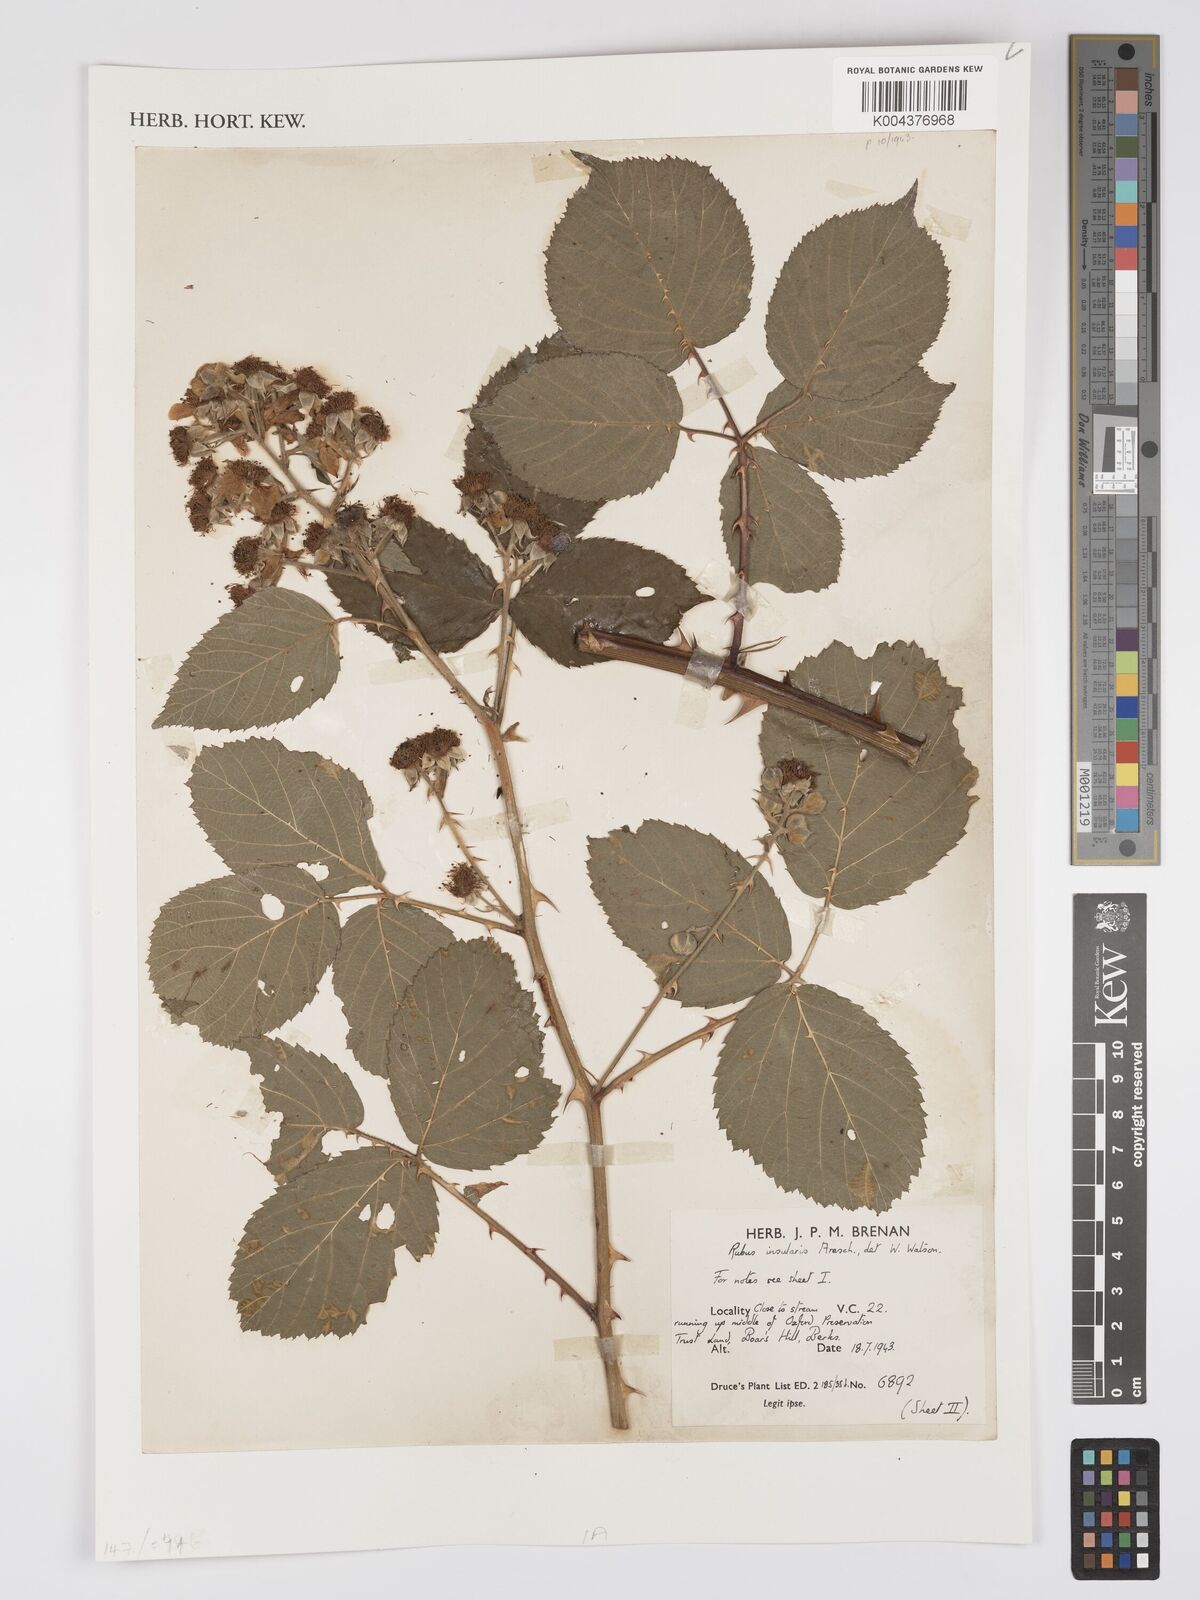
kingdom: Plantae
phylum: Tracheophyta
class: Magnoliopsida
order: Rosales
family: Rosaceae
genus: Rubus
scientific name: Rubus calvatus
